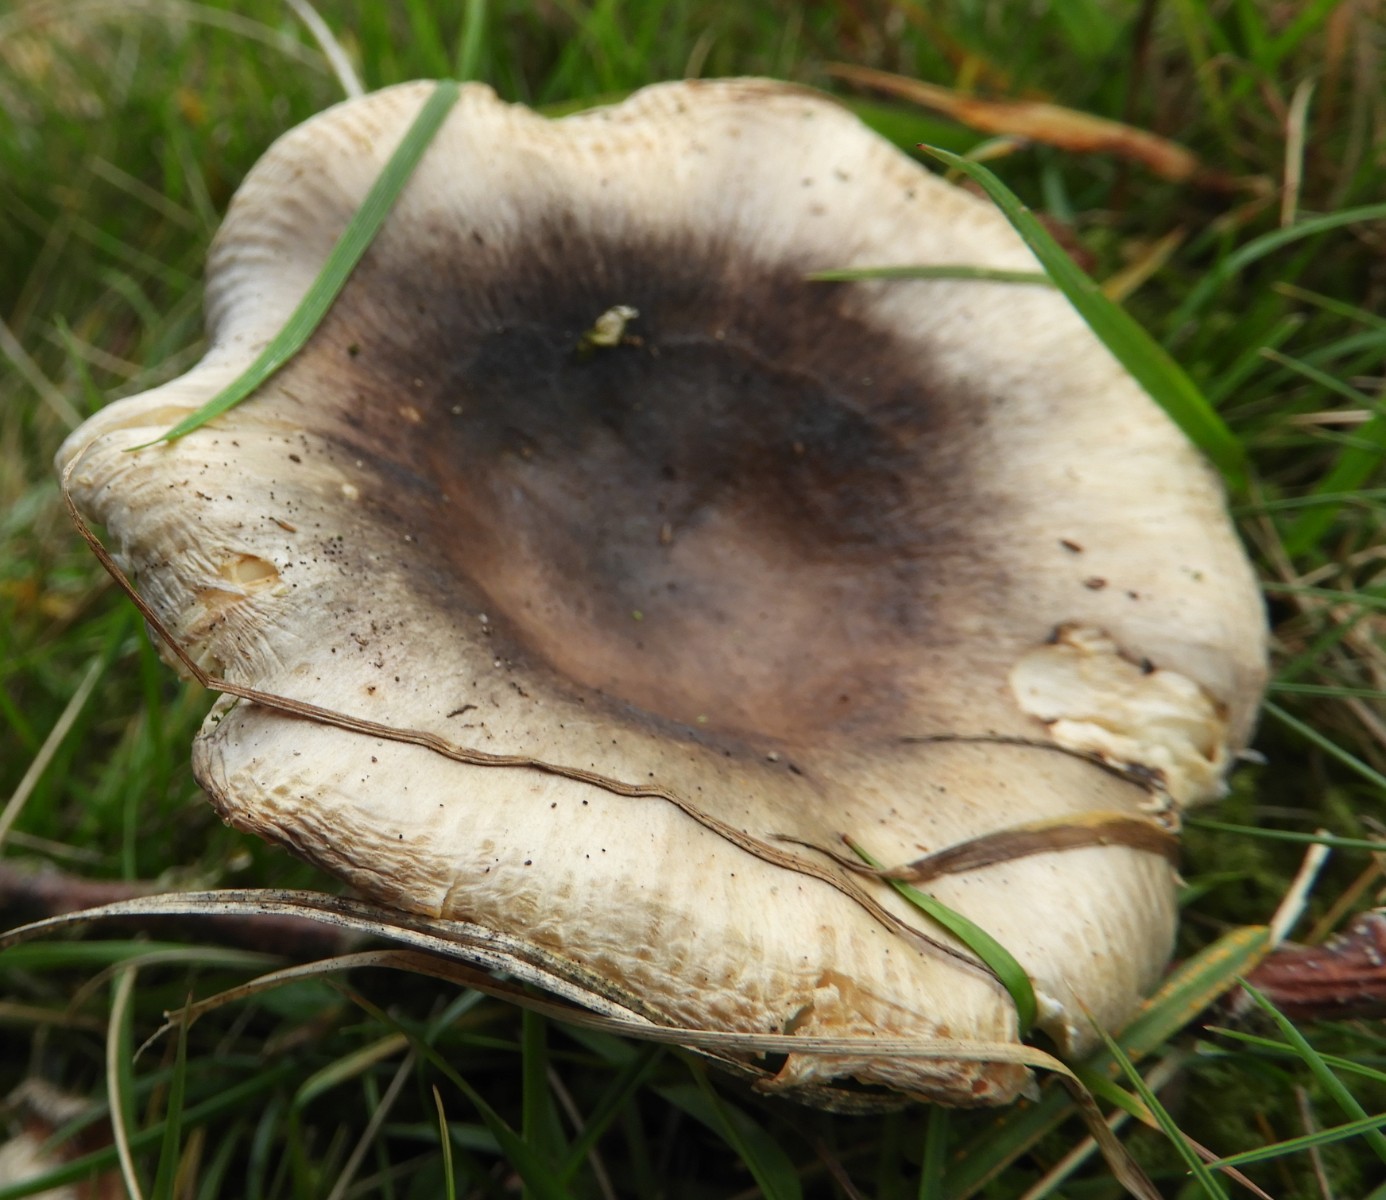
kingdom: Fungi
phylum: Basidiomycota
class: Agaricomycetes
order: Russulales
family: Russulaceae
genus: Russula
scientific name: Russula
